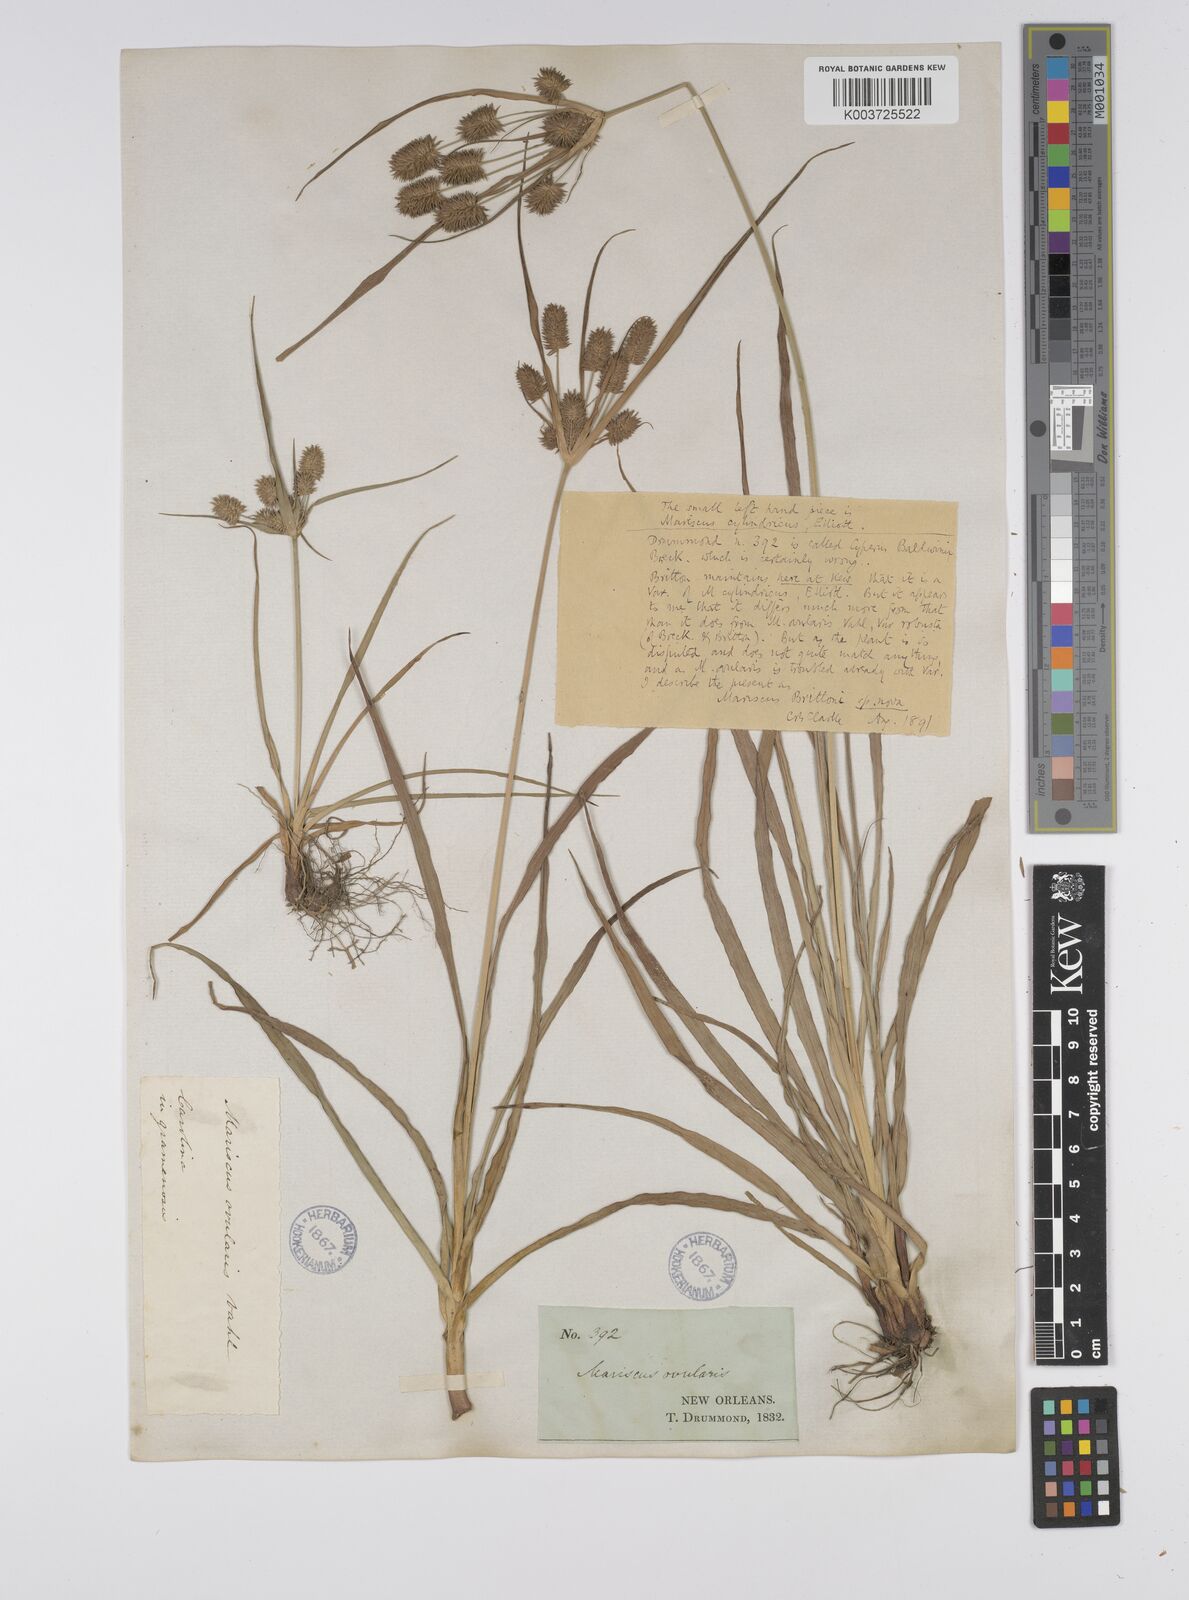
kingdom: Plantae
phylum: Tracheophyta
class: Liliopsida
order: Poales
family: Cyperaceae
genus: Cyperus
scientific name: Cyperus retrorsus
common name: Pinebarren flat sedge
